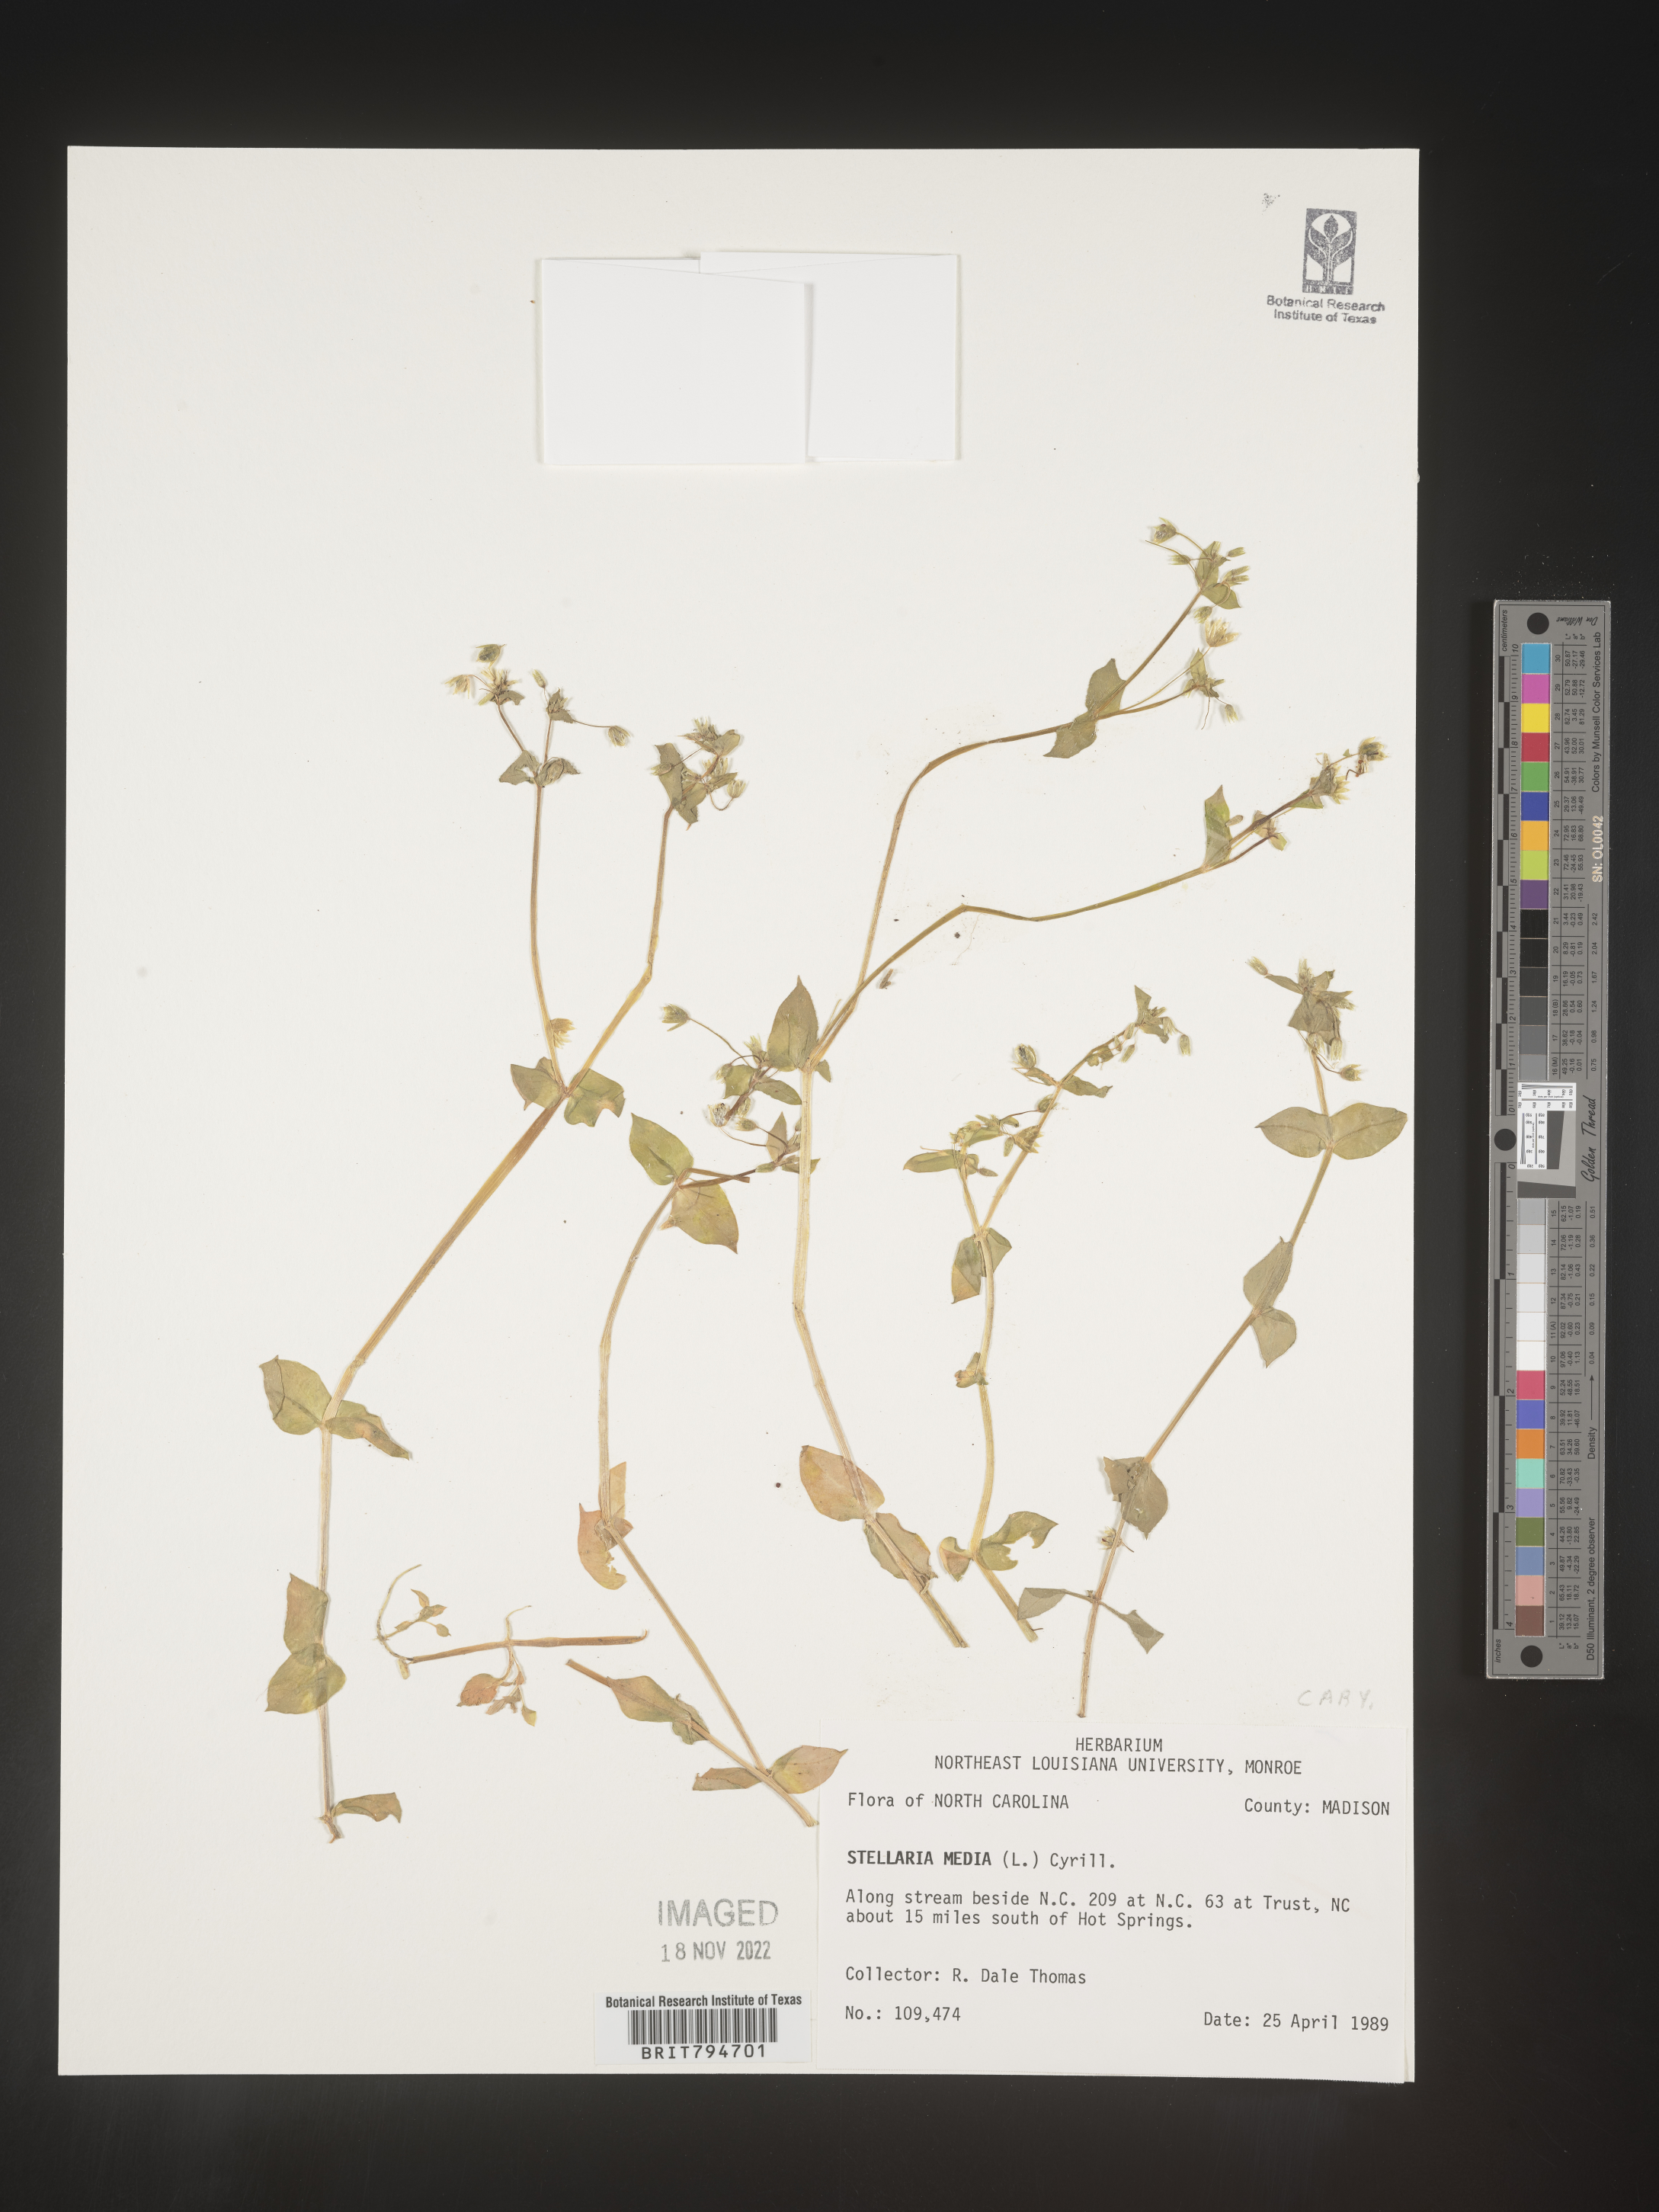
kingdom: Plantae
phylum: Tracheophyta
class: Magnoliopsida
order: Caryophyllales
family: Caryophyllaceae
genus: Stellaria
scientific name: Stellaria media
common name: Common chickweed
